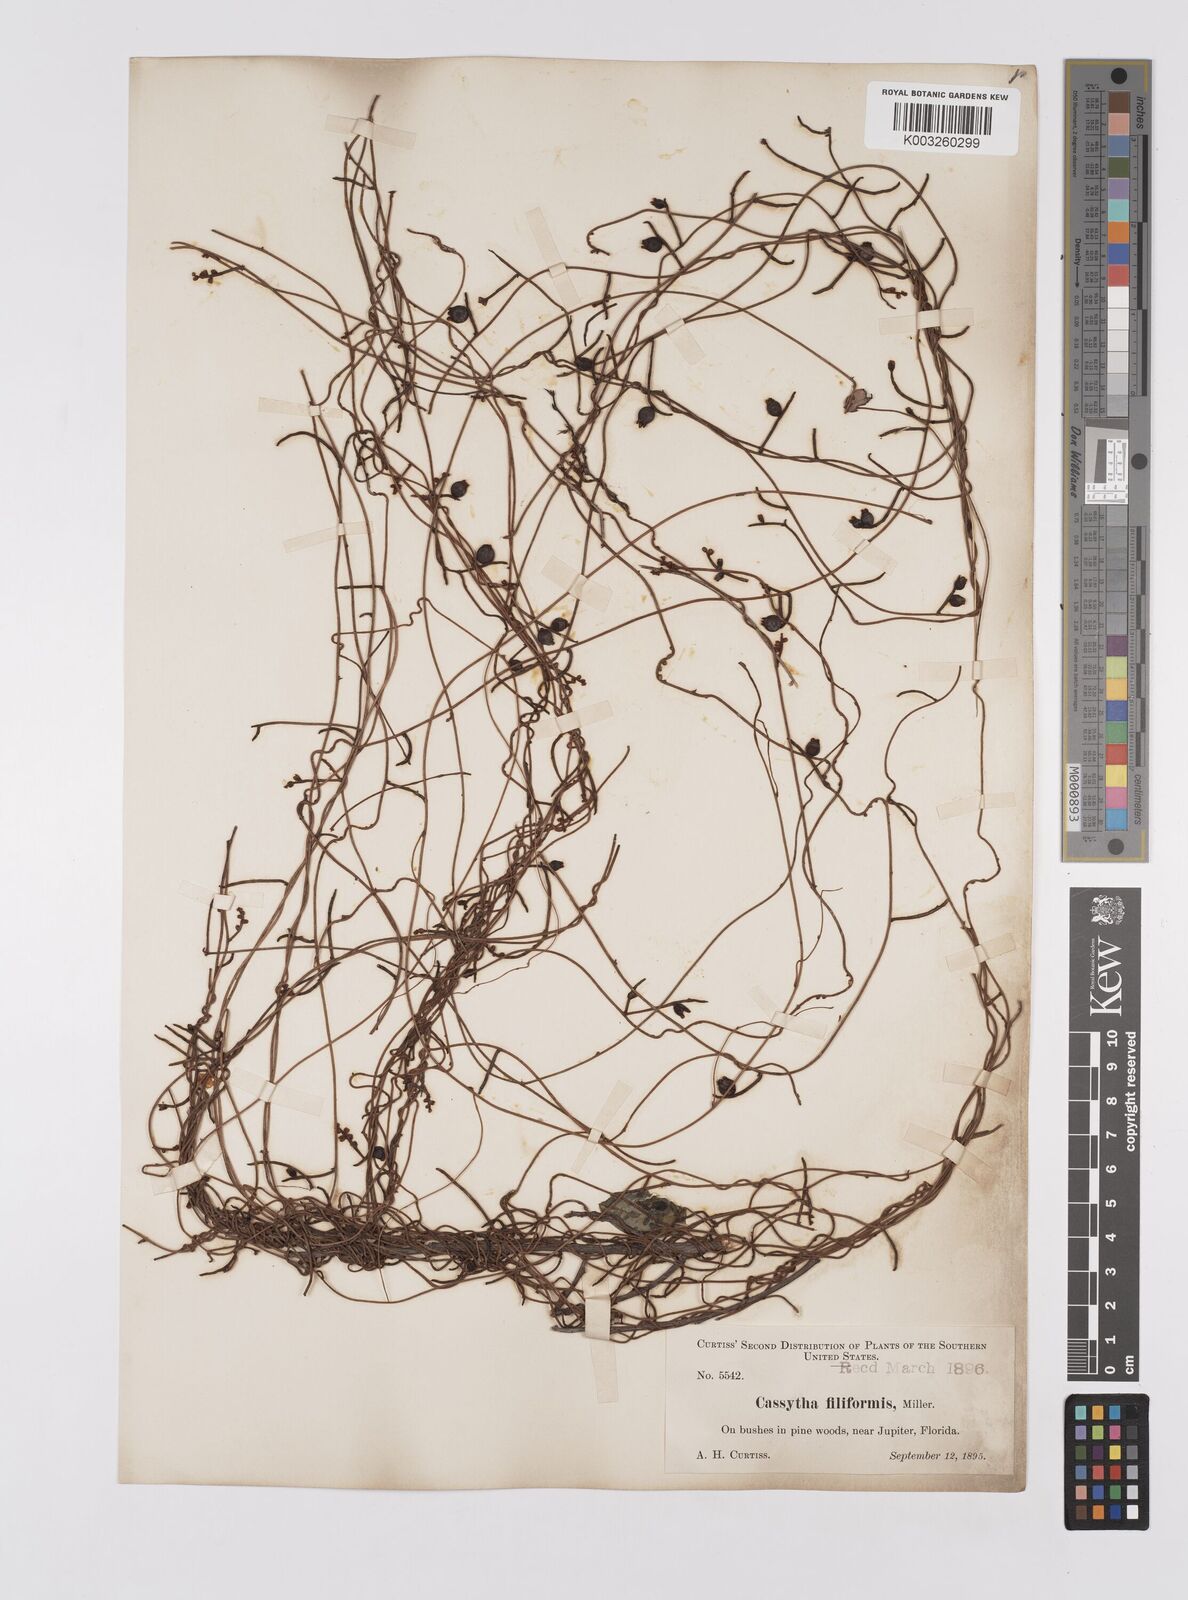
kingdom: Plantae
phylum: Tracheophyta
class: Magnoliopsida
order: Laurales
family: Lauraceae
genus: Cassytha
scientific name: Cassytha filiformis
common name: Dodder-laurel
